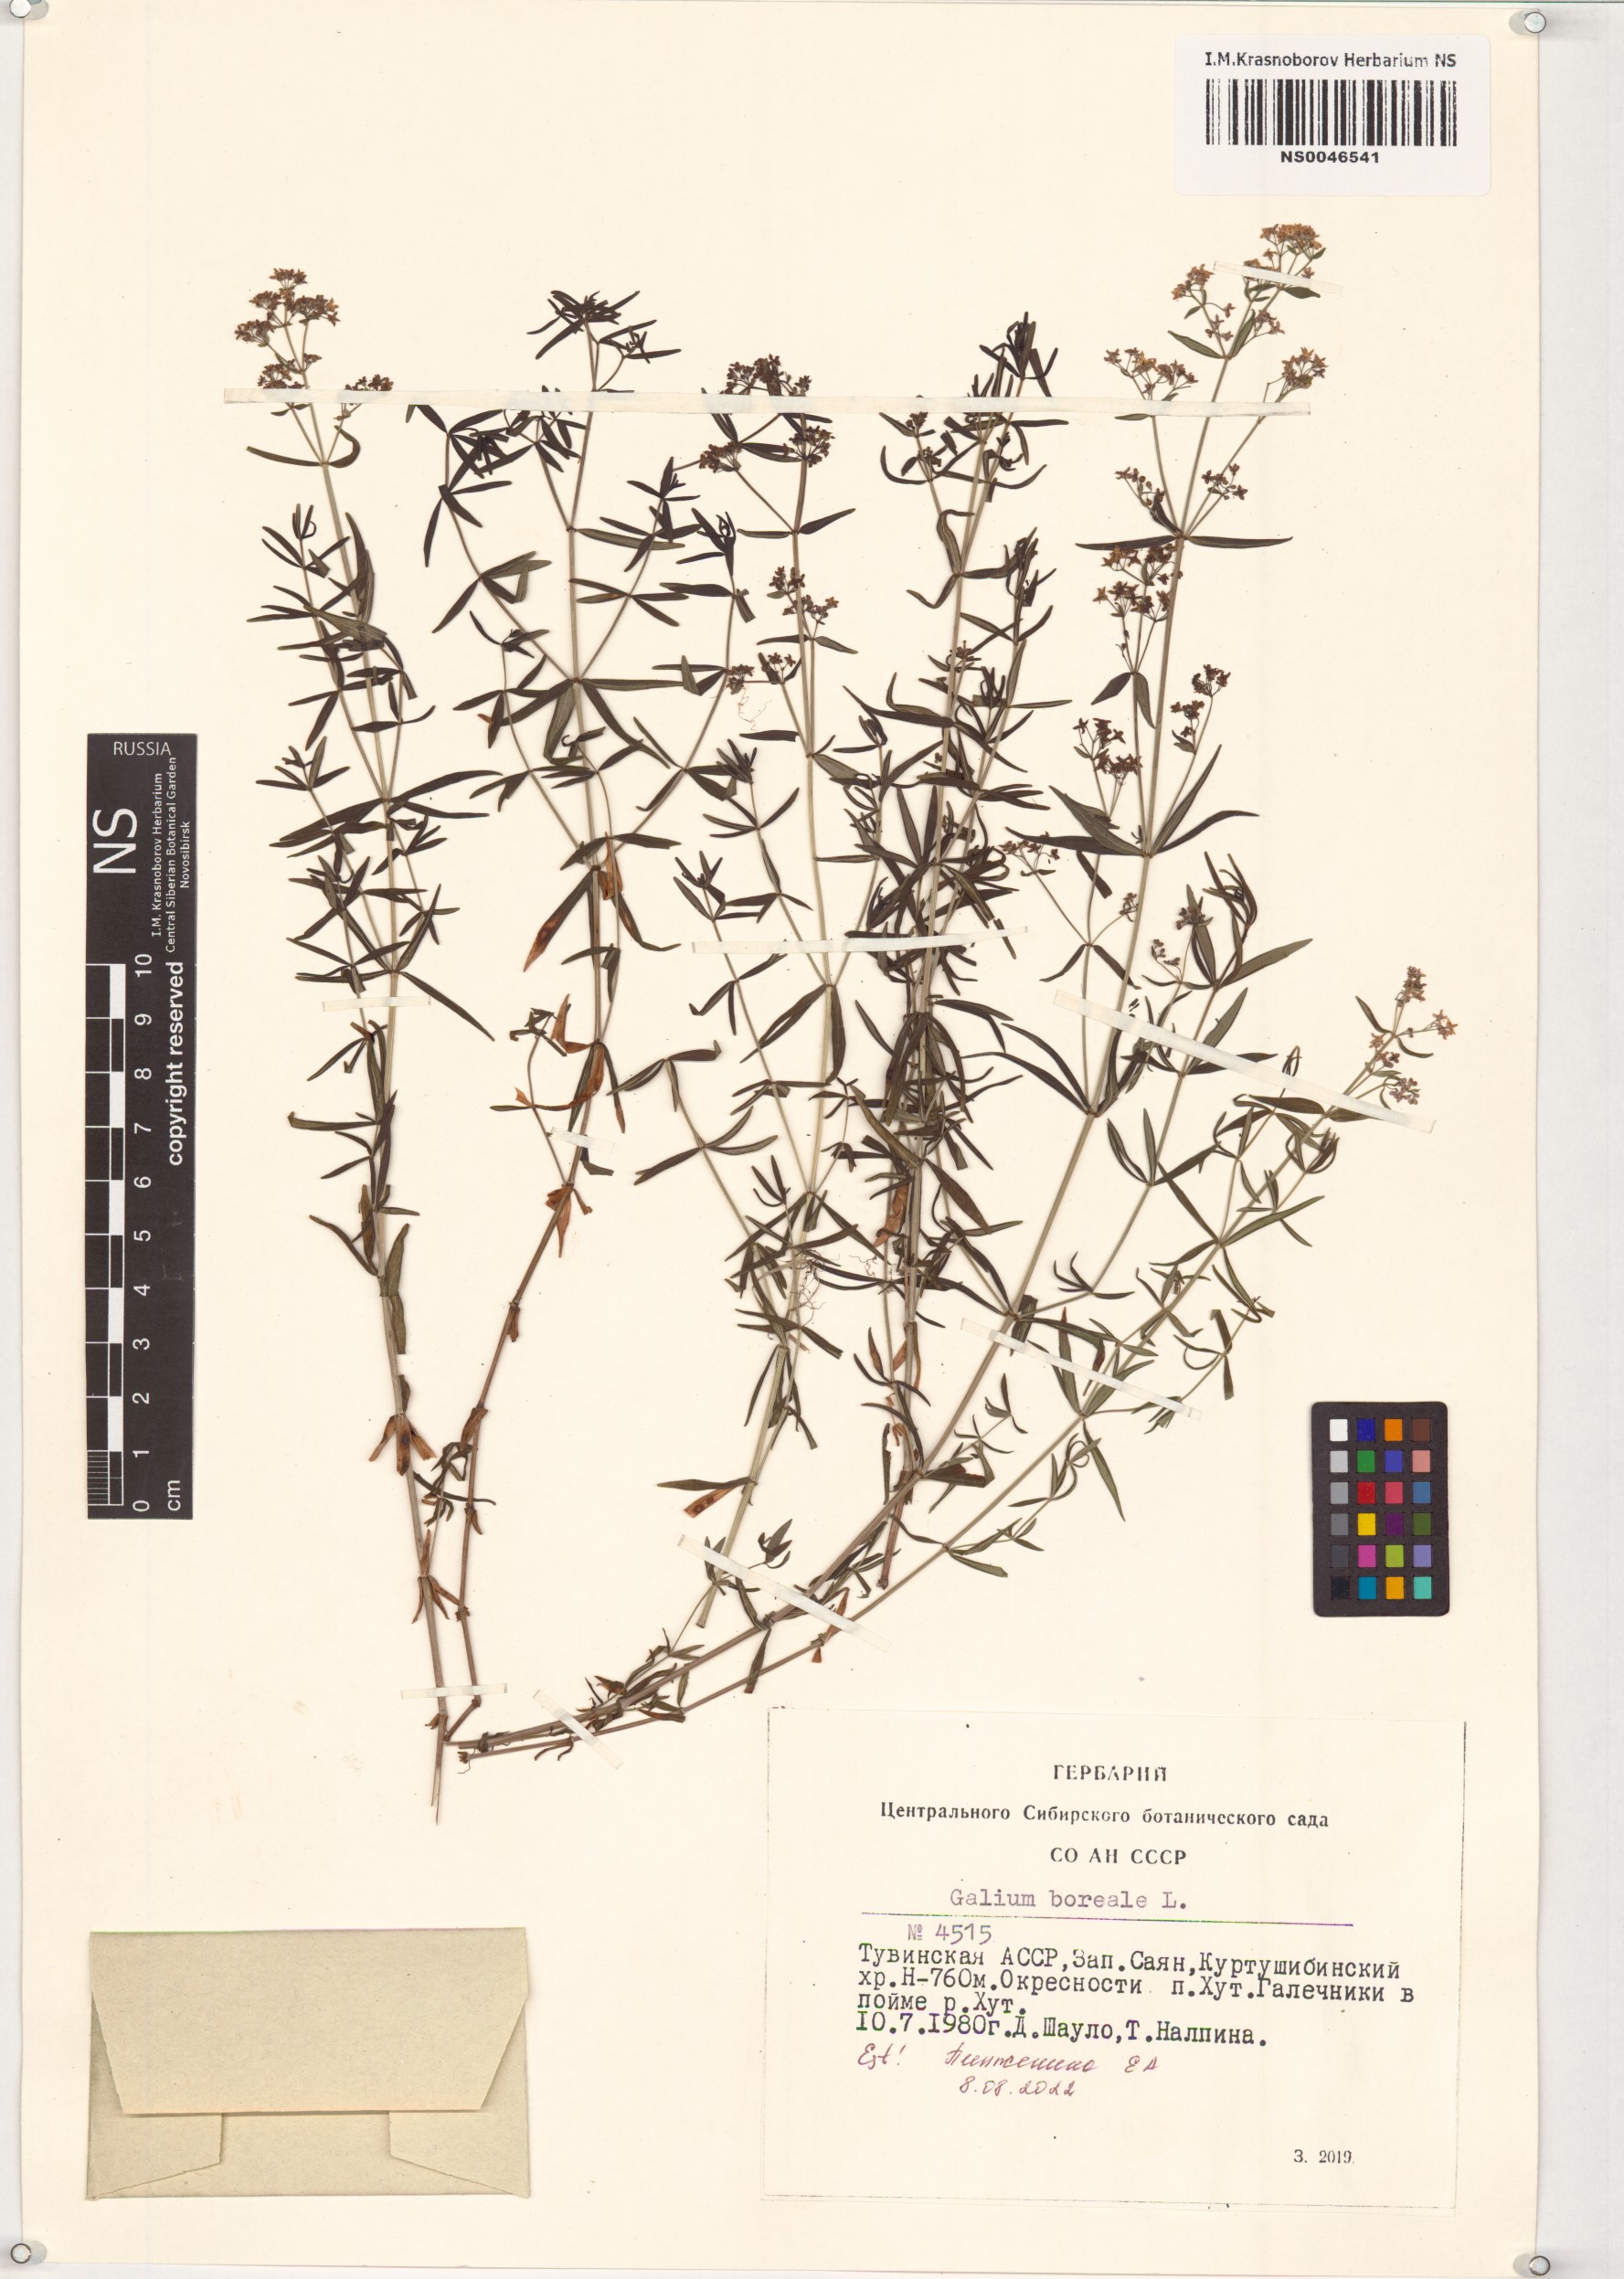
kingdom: Plantae
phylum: Tracheophyta
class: Magnoliopsida
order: Gentianales
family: Rubiaceae
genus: Galium
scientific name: Galium boreale
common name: Northern bedstraw
